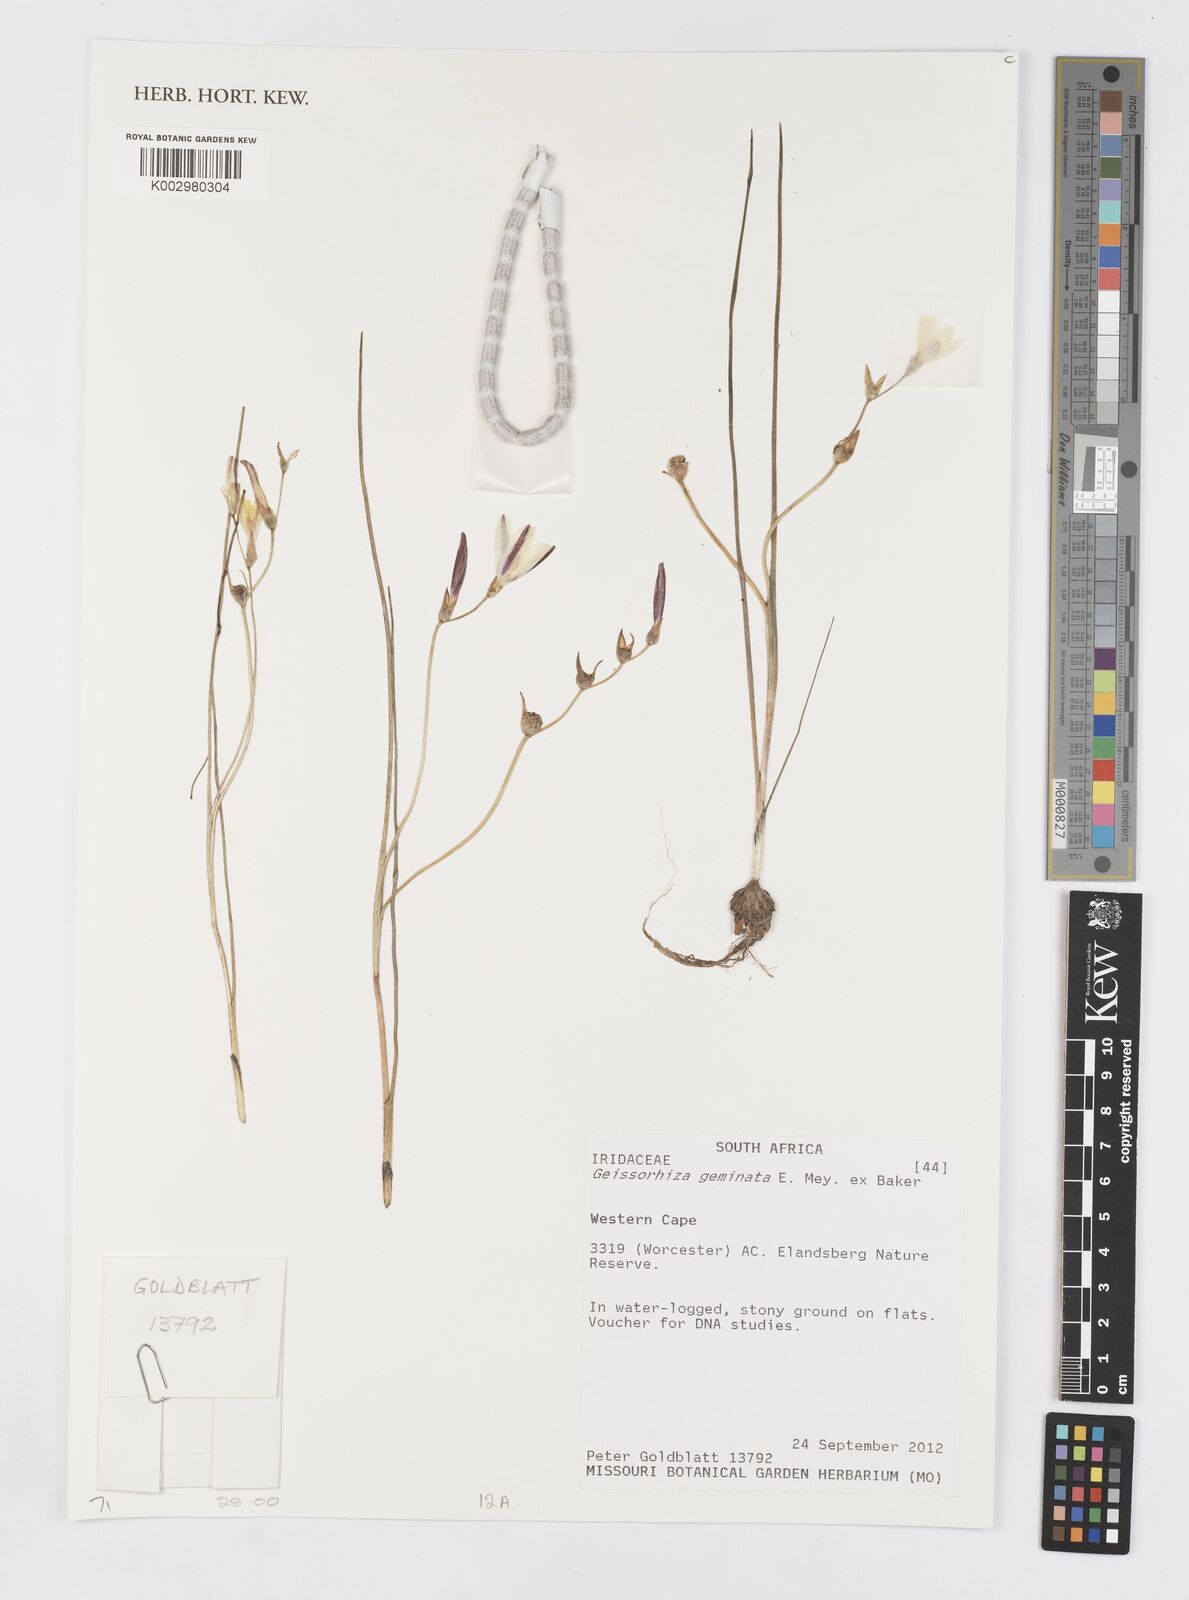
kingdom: Plantae
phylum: Tracheophyta
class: Liliopsida
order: Asparagales
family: Iridaceae
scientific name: Iridaceae
